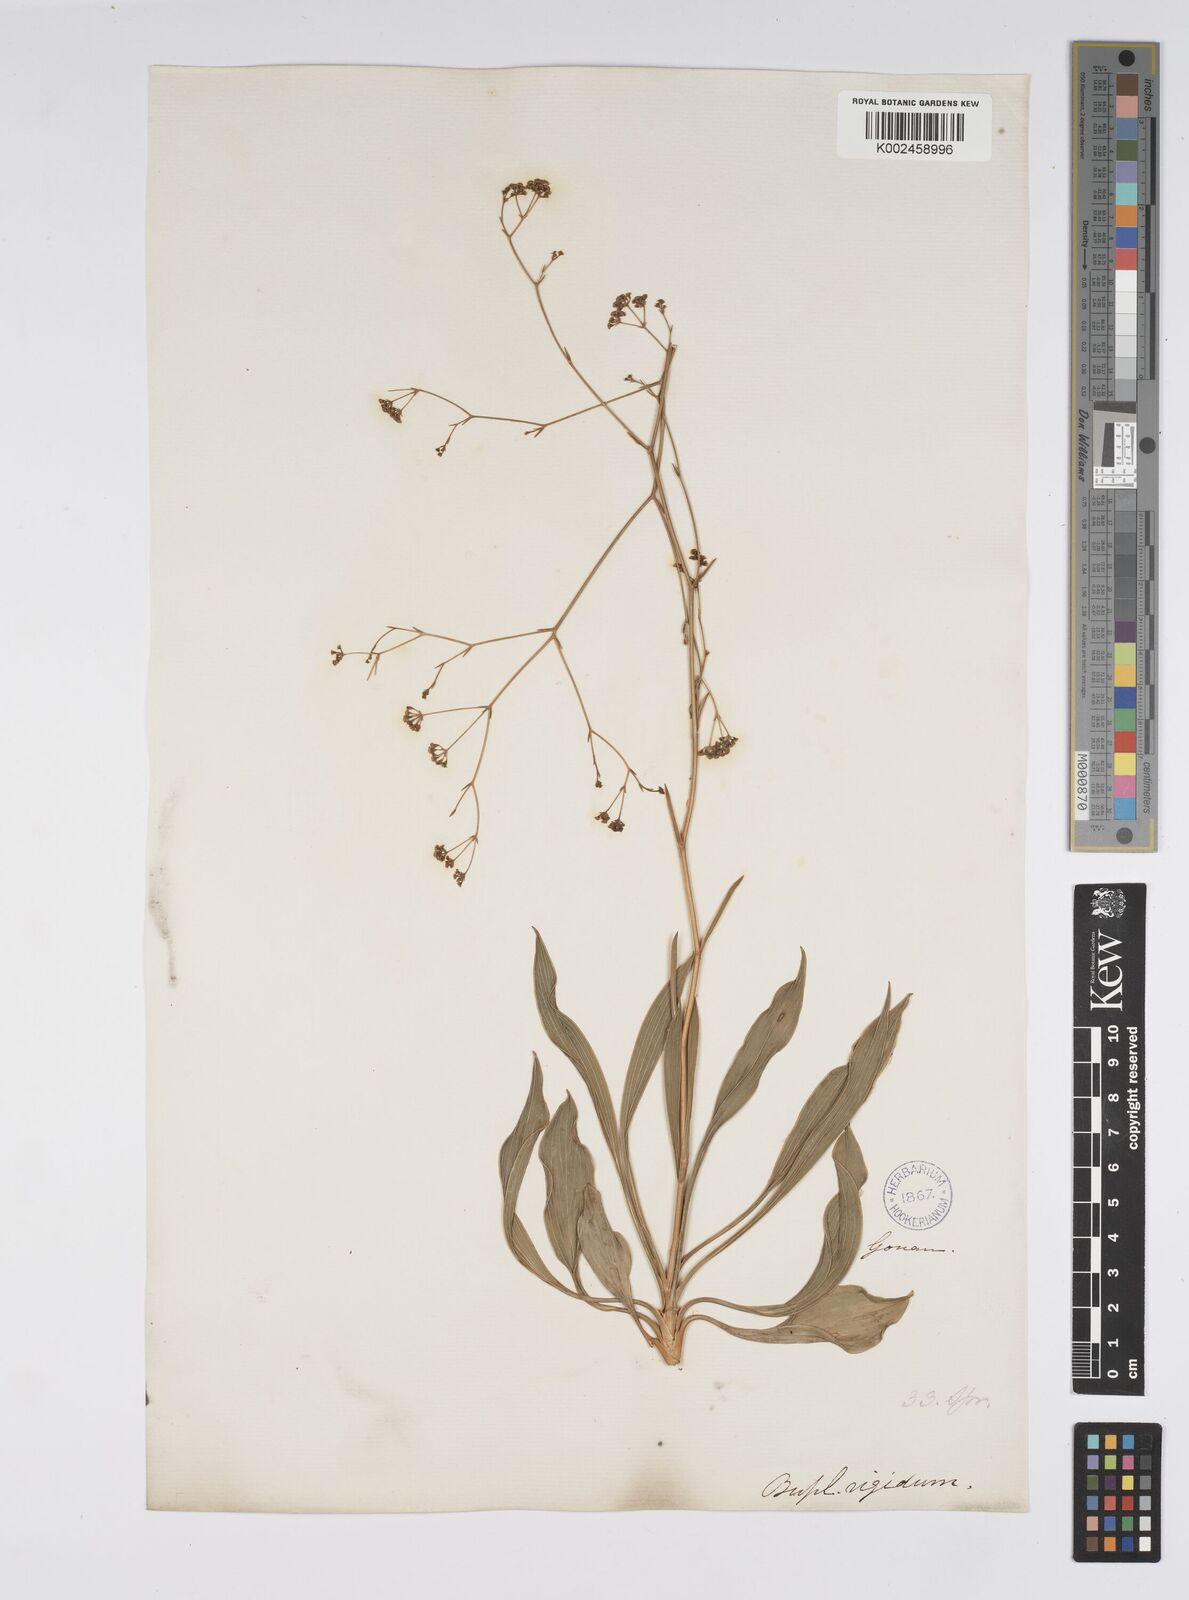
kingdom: Plantae
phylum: Tracheophyta
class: Magnoliopsida
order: Apiales
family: Apiaceae
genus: Bupleurum
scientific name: Bupleurum rigidum
